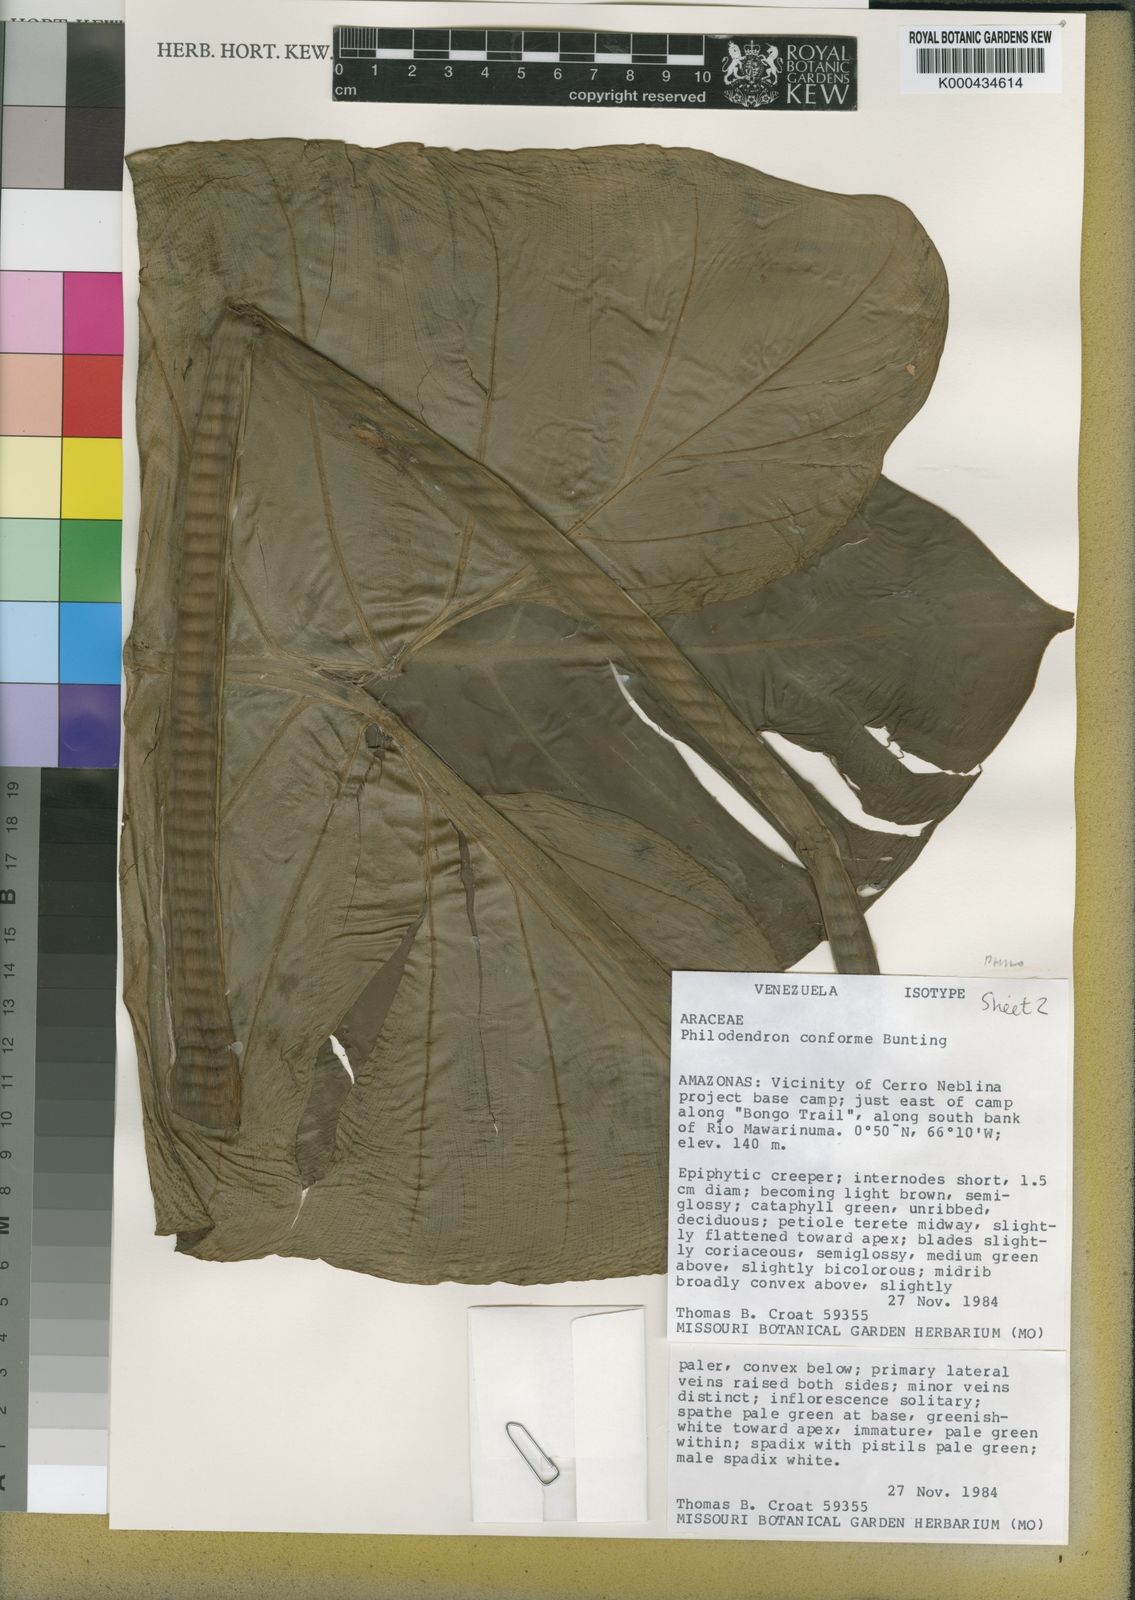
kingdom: Plantae
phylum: Tracheophyta
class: Liliopsida
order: Alismatales
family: Araceae
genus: Philodendron
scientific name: Philodendron conforme
